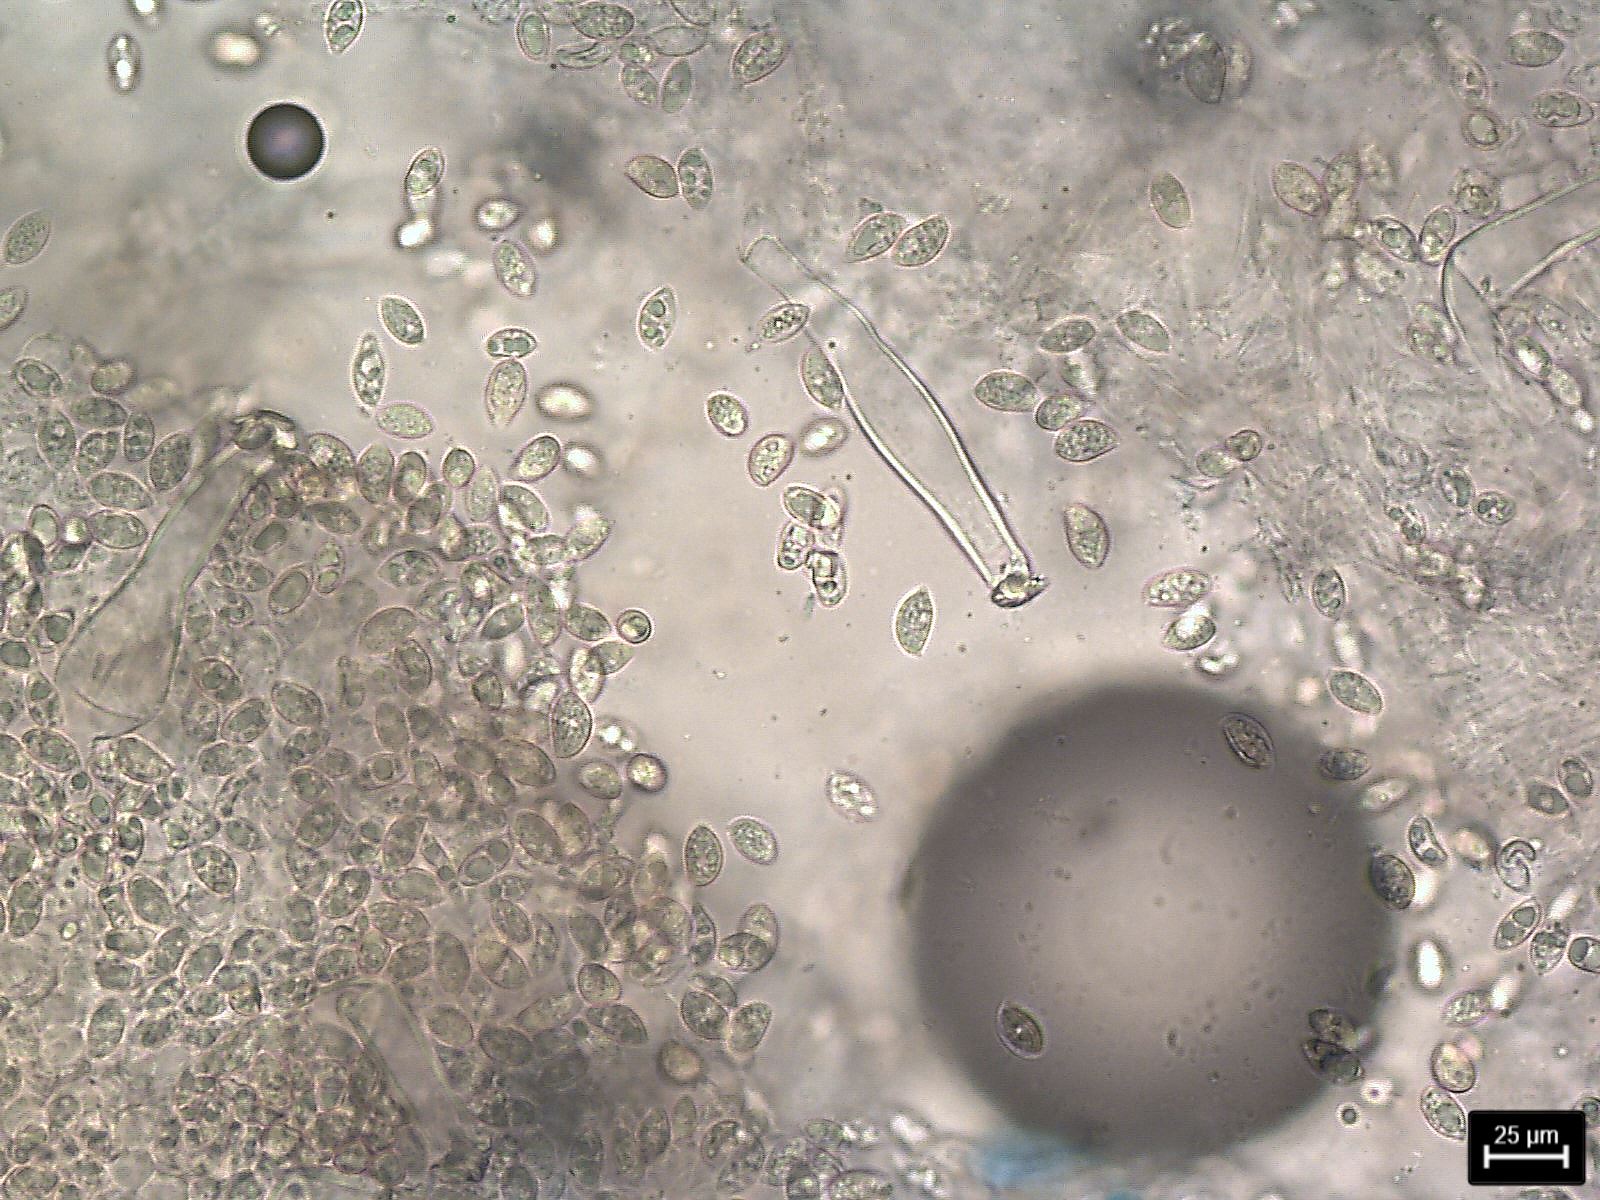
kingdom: Fungi
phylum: Basidiomycota
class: Agaricomycetes
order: Agaricales
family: Inocybaceae
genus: Inocybe
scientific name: Inocybe
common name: trævlhat
